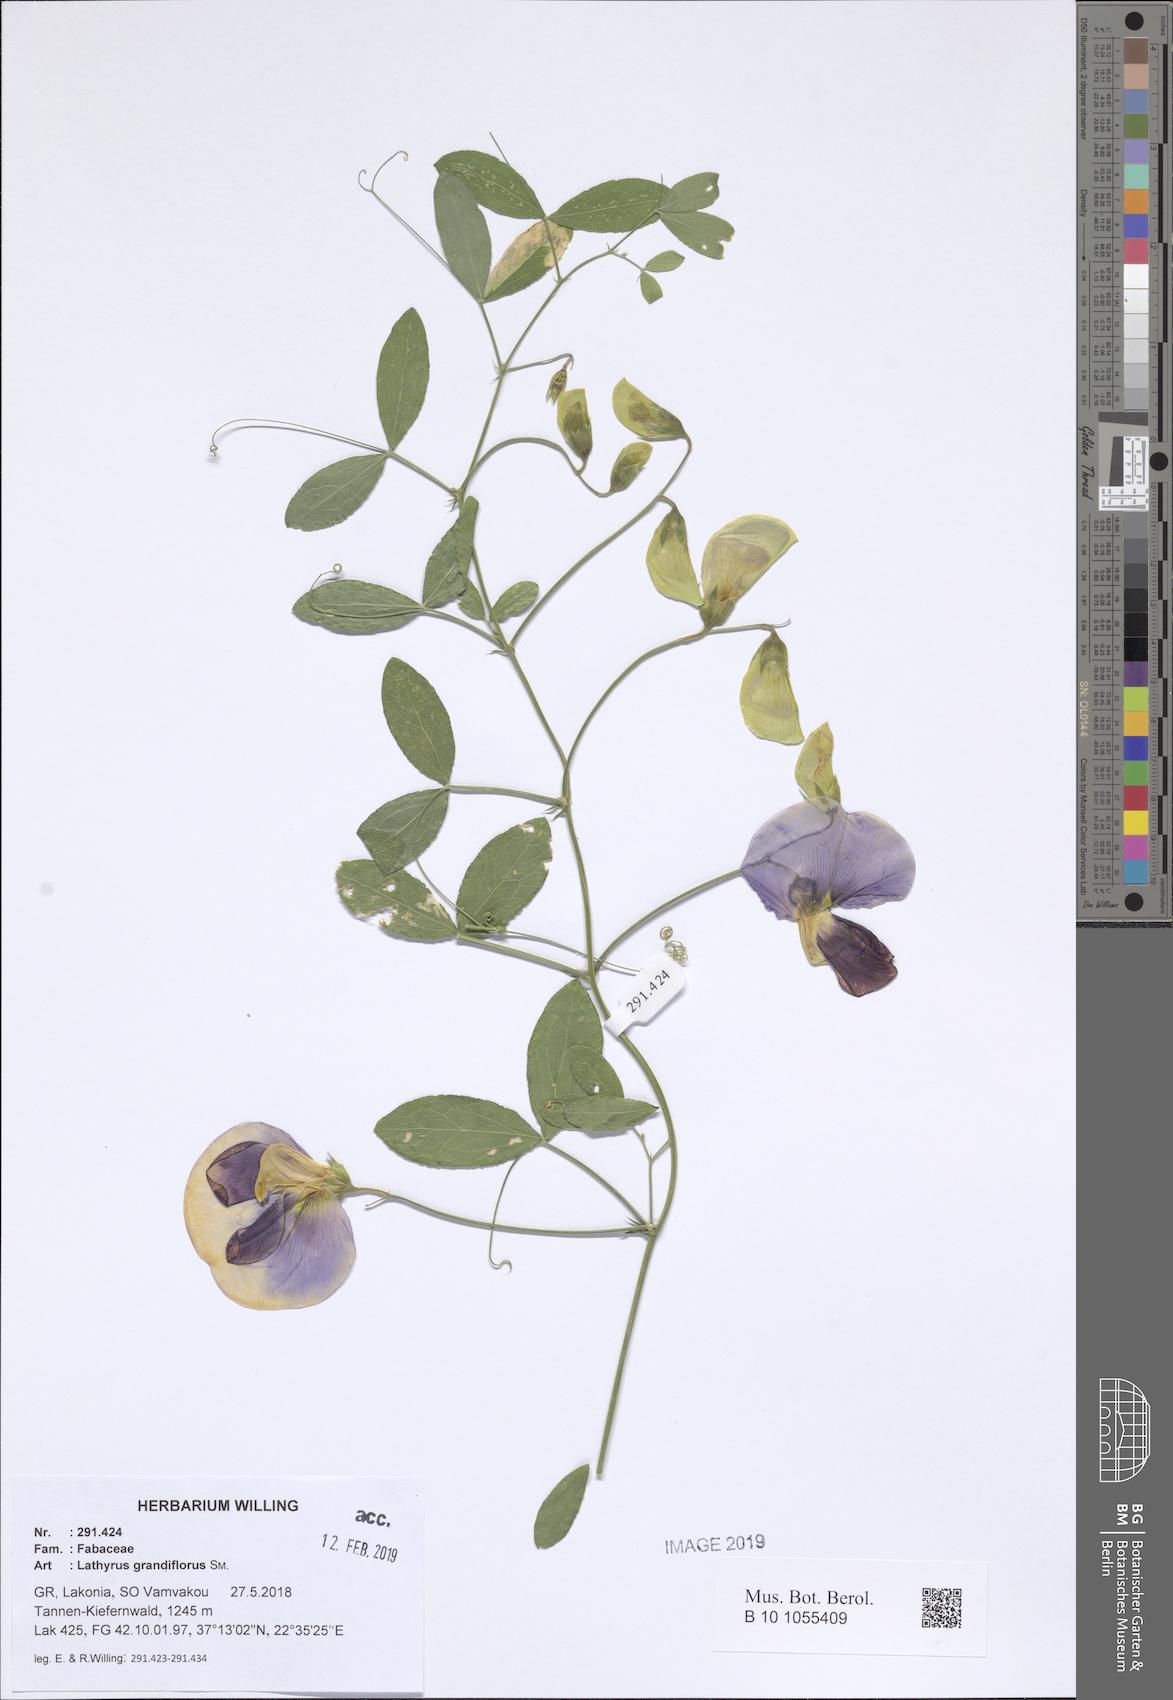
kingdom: Plantae
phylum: Tracheophyta
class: Magnoliopsida
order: Fabales
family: Fabaceae
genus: Lathyrus
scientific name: Lathyrus grandiflorus
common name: Two-flowered everlasting-pea
